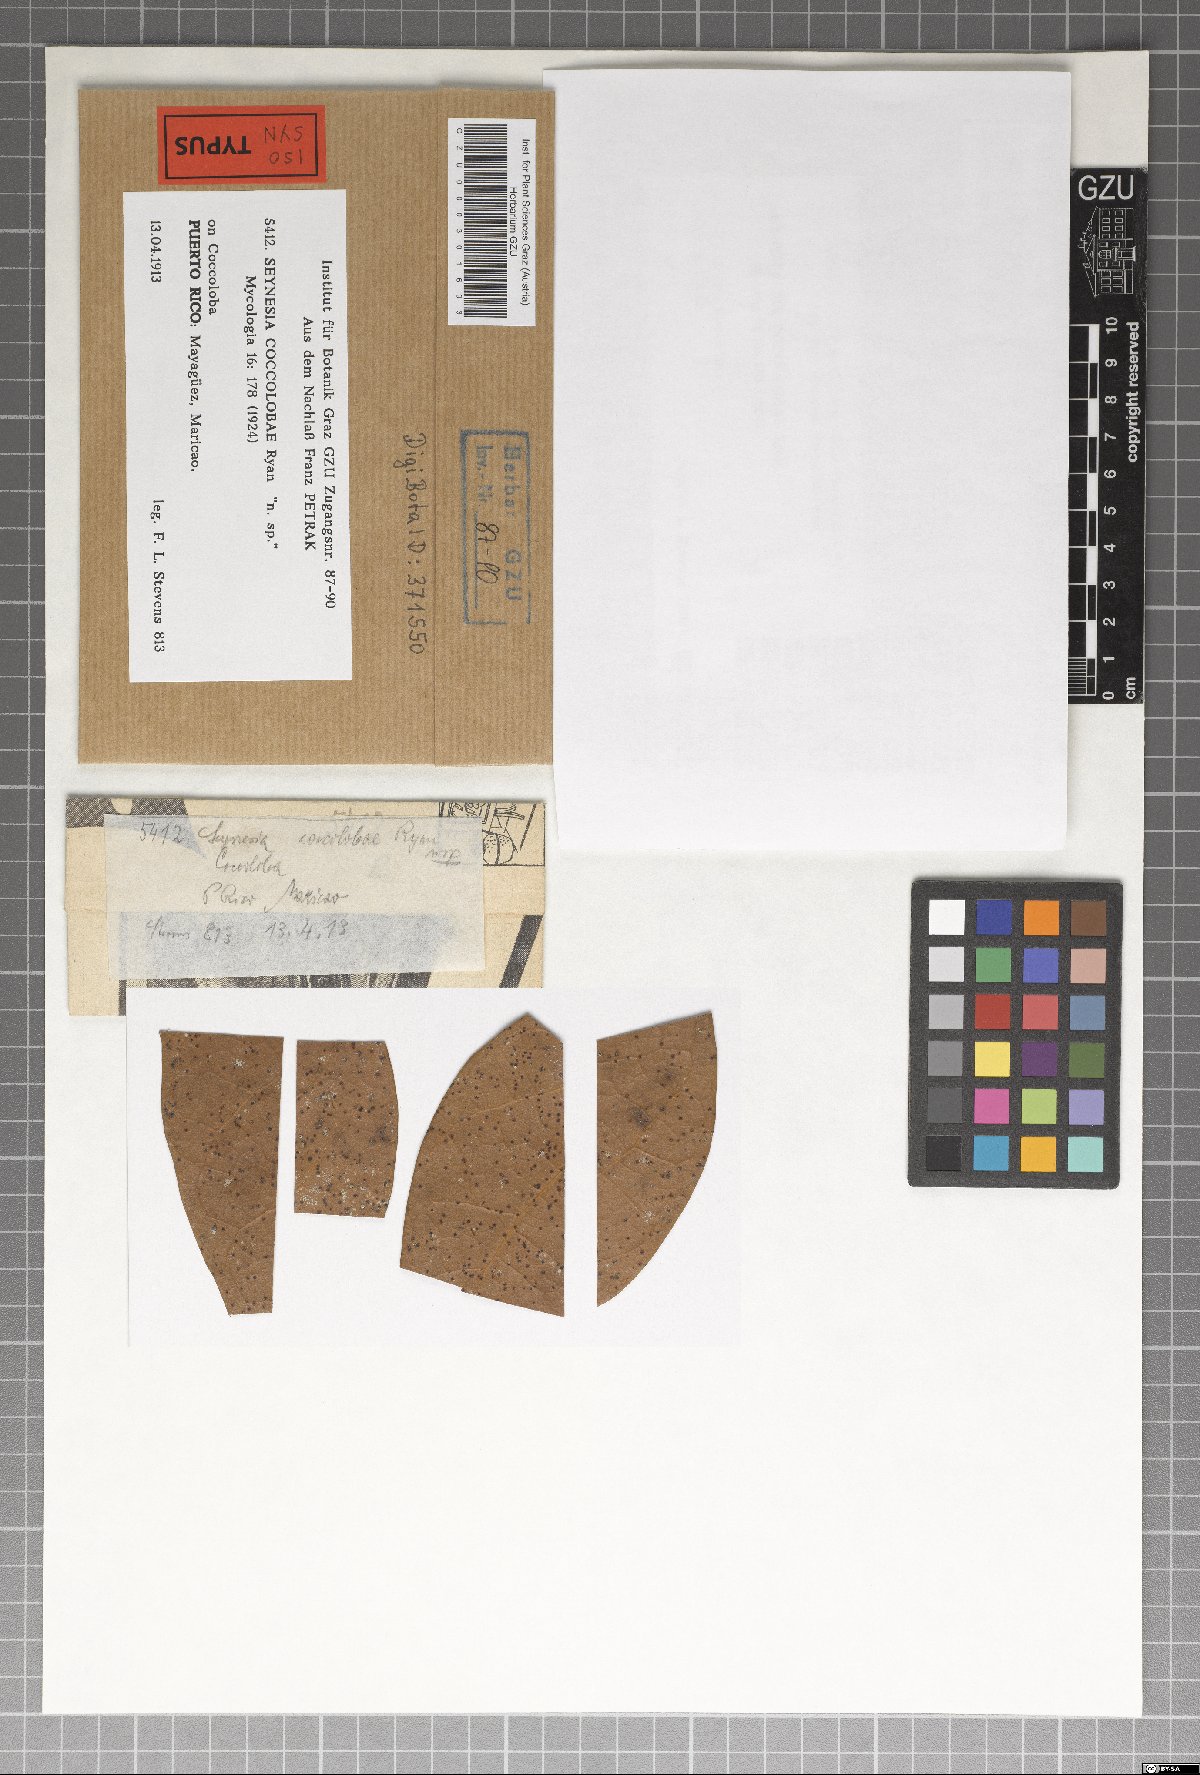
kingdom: Fungi
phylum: Ascomycota
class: Dothideomycetes
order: Asterinales
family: Parmulariaceae
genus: Cocconia
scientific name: Cocconia coccolobae
